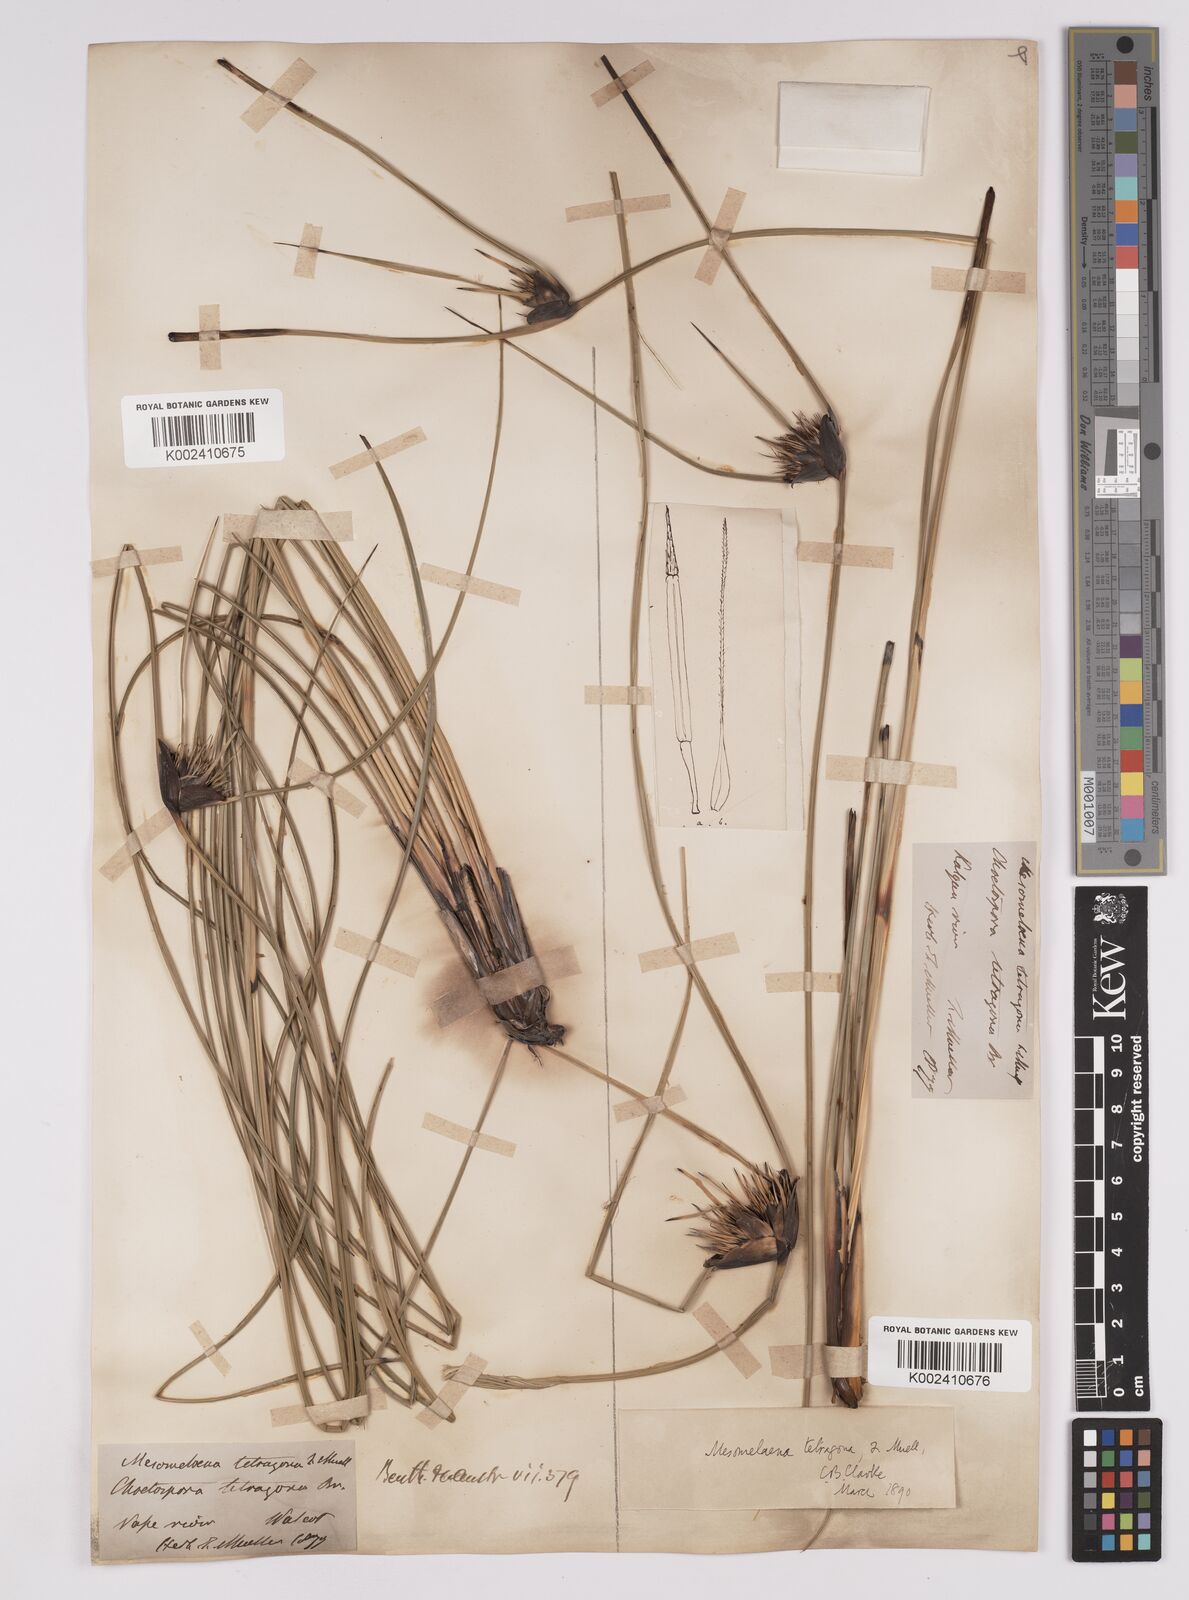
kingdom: Plantae
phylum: Tracheophyta
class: Liliopsida
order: Poales
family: Cyperaceae
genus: Mesomelaena
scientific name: Mesomelaena tetragona
